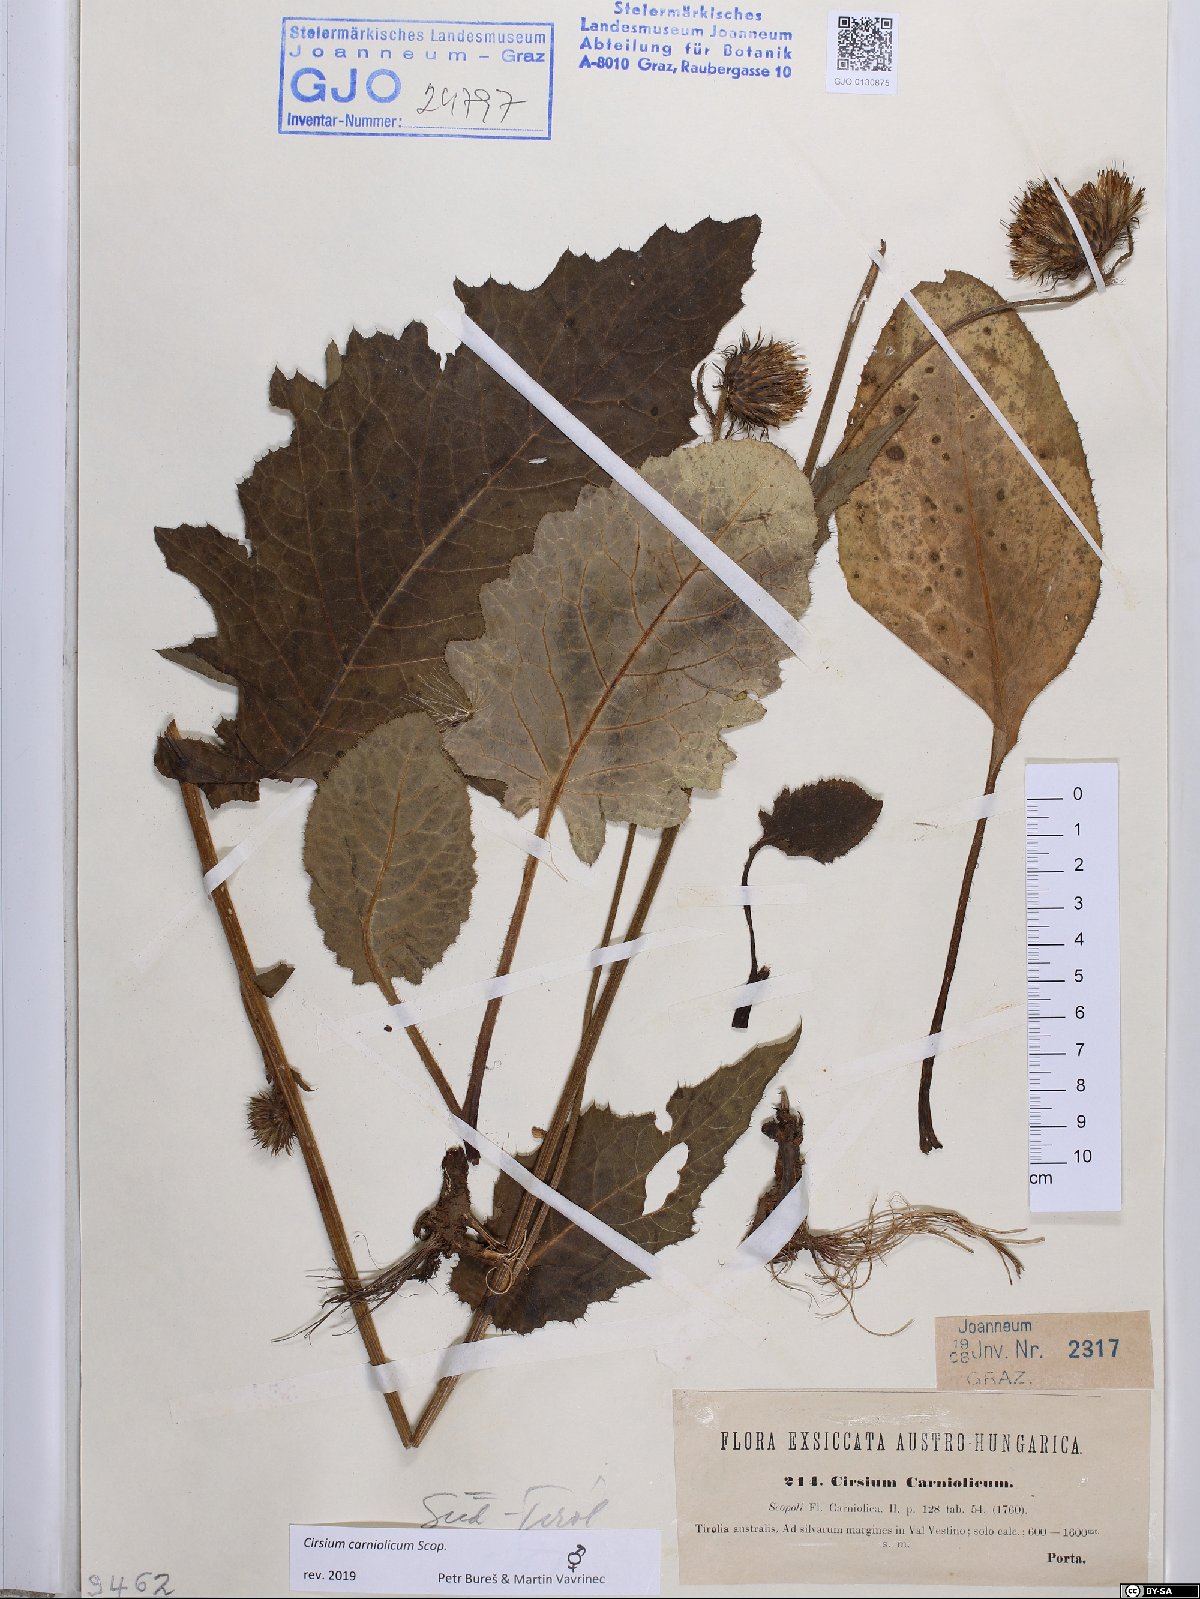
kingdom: Plantae
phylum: Tracheophyta
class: Magnoliopsida
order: Asterales
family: Asteraceae
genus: Cirsium
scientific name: Cirsium carniolicum
